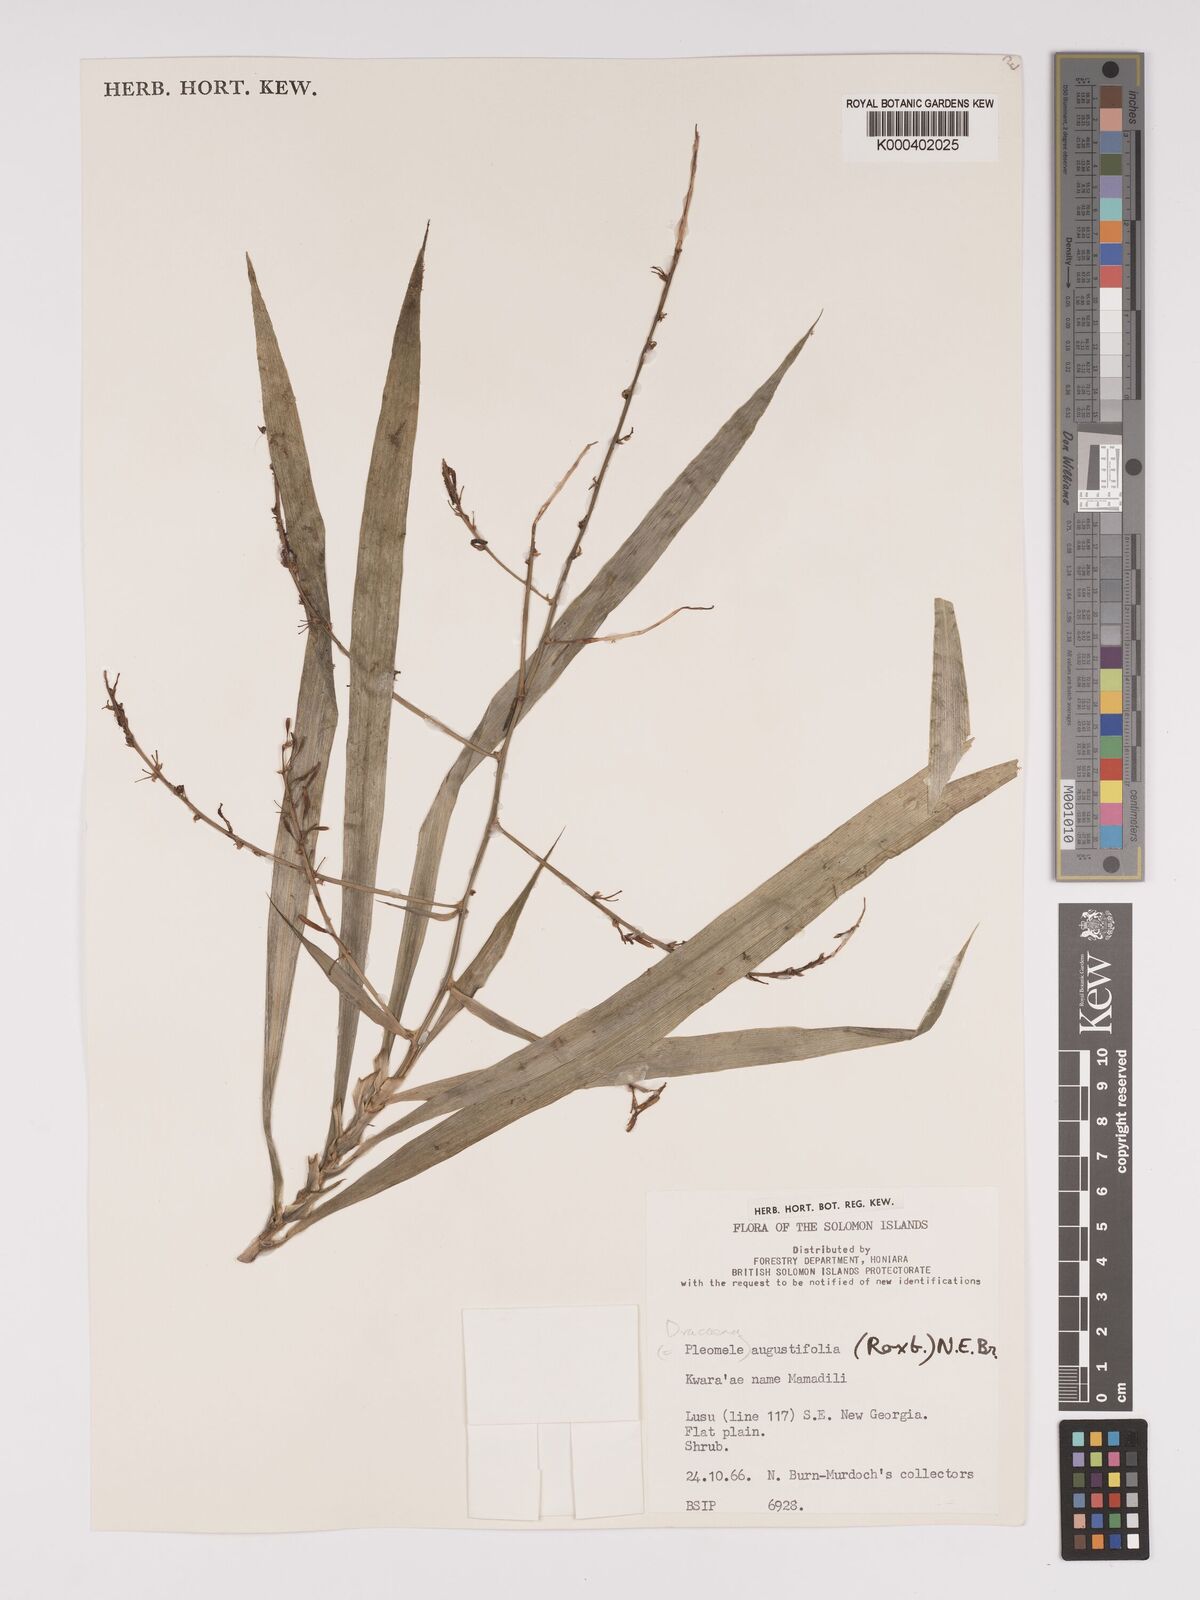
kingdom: Plantae
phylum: Tracheophyta
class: Liliopsida
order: Asparagales
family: Asparagaceae
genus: Dracaena
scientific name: Dracaena angustifolia
